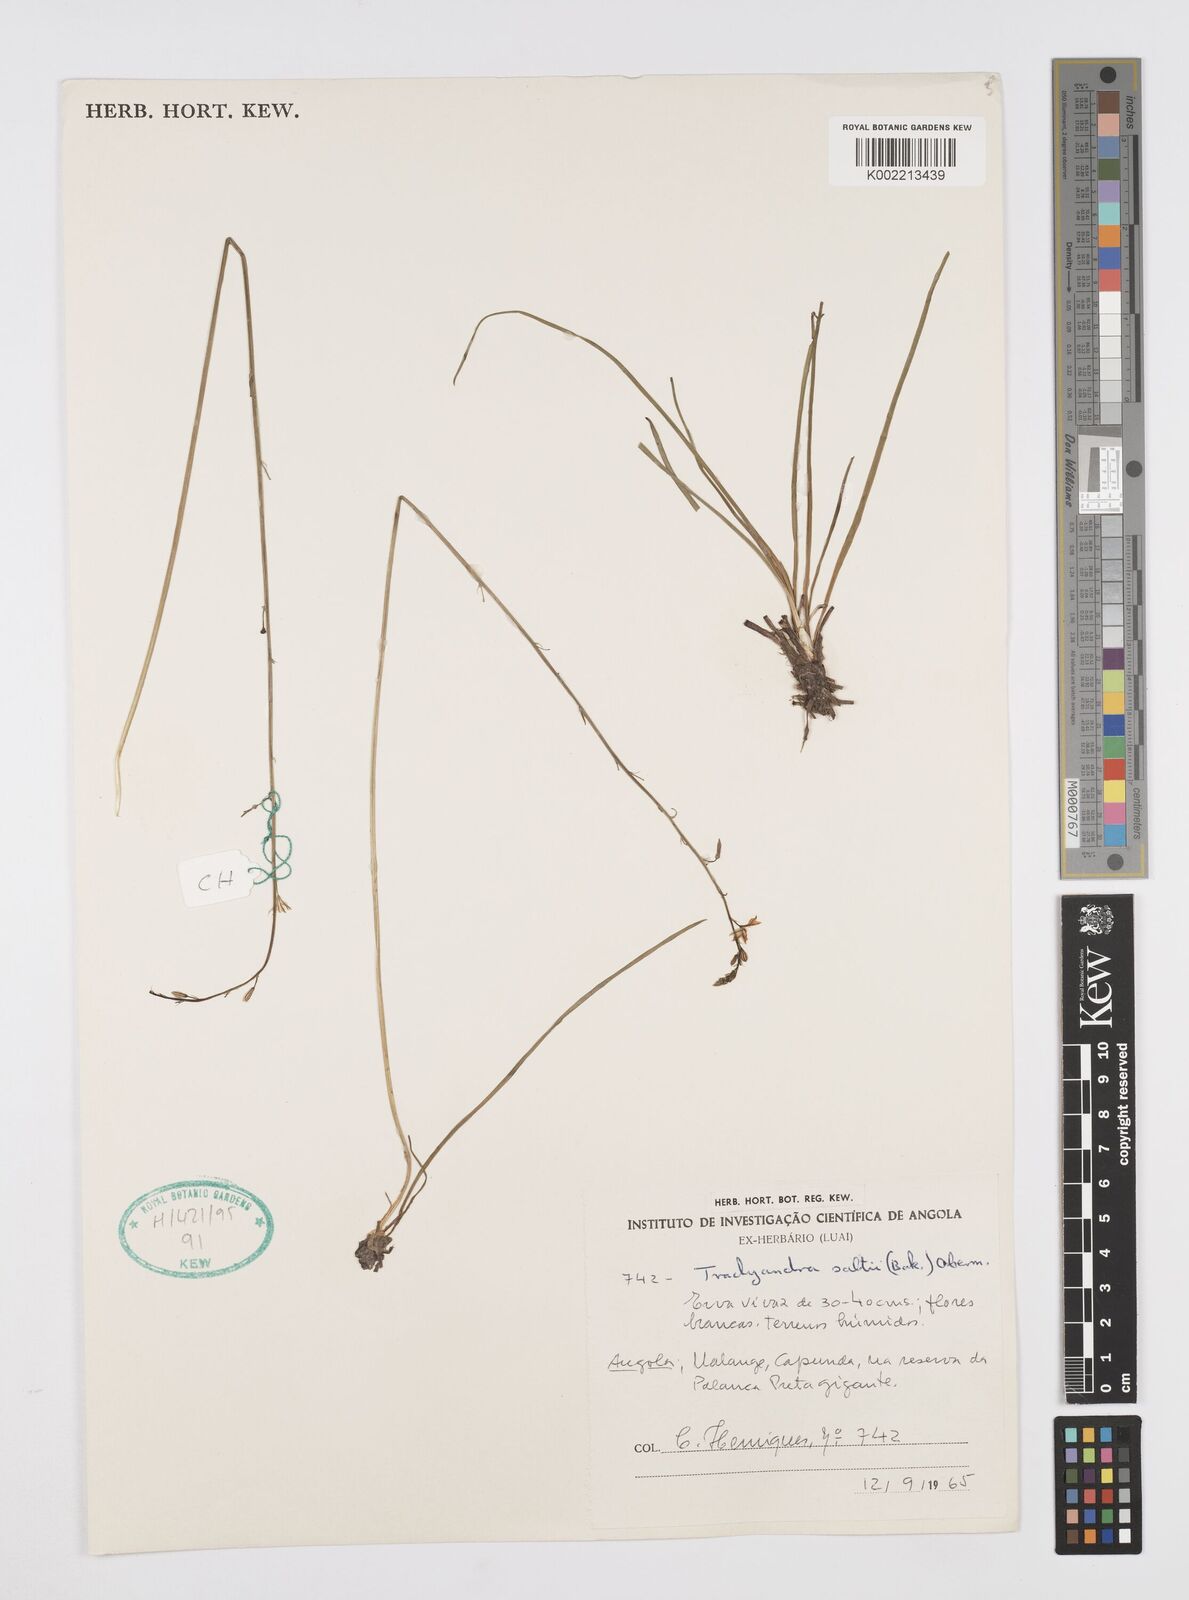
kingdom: Plantae
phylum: Tracheophyta
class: Liliopsida
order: Asparagales
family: Asphodelaceae
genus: Trachyandra
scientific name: Trachyandra saltii
